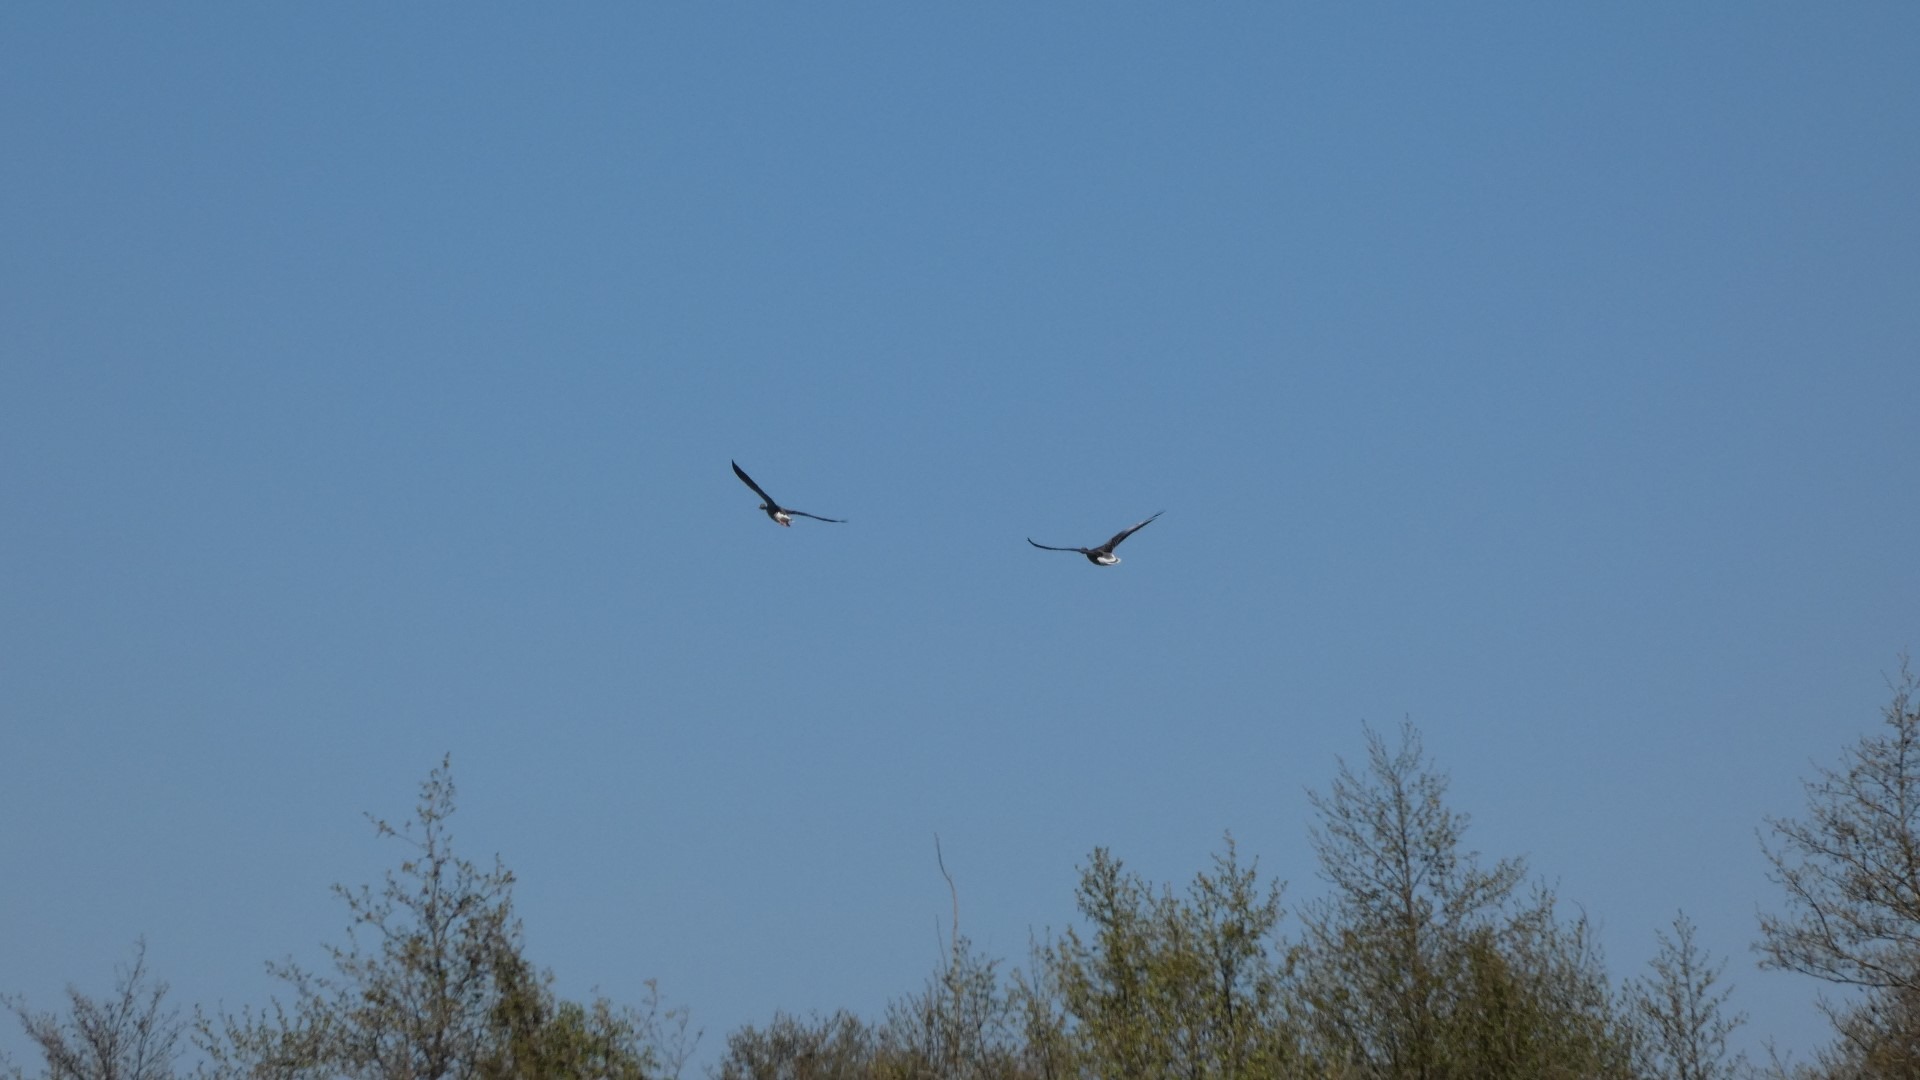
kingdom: Animalia
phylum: Chordata
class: Aves
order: Anseriformes
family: Anatidae
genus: Anser
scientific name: Anser anser
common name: Grågås
